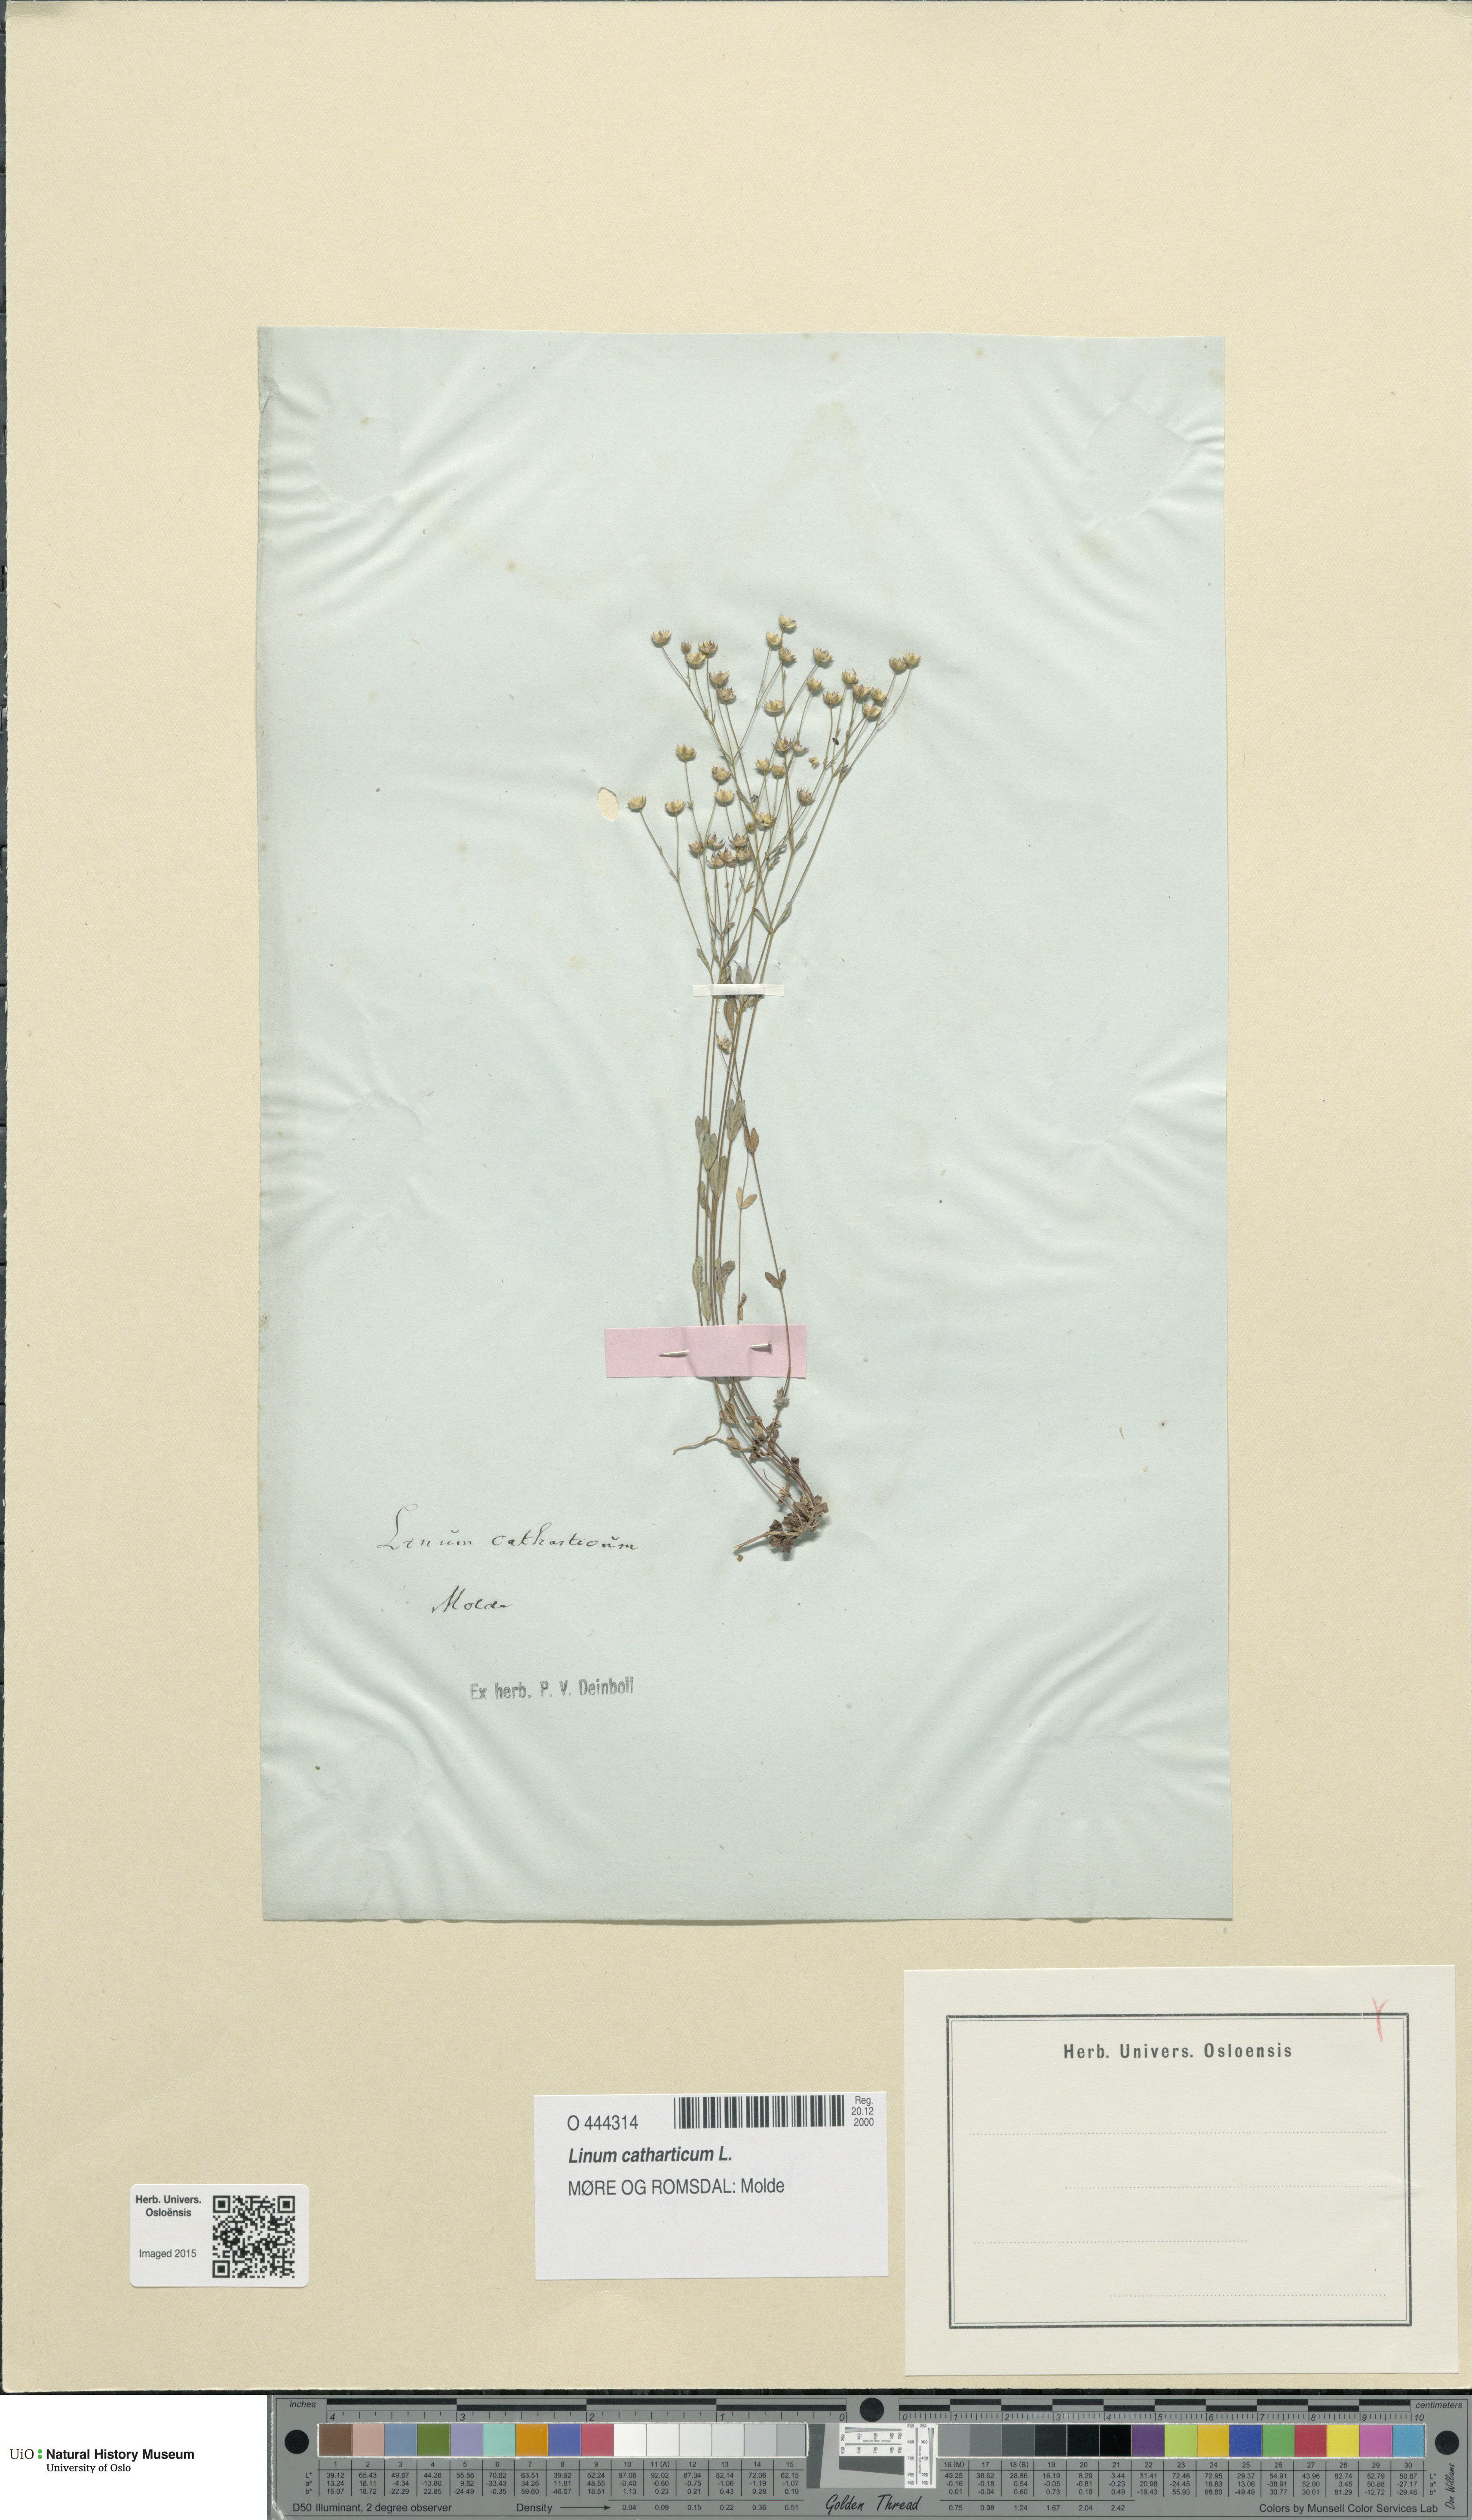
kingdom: Plantae
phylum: Tracheophyta
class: Magnoliopsida
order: Malpighiales
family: Linaceae
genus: Linum
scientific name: Linum catharticum
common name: Fairy flax
